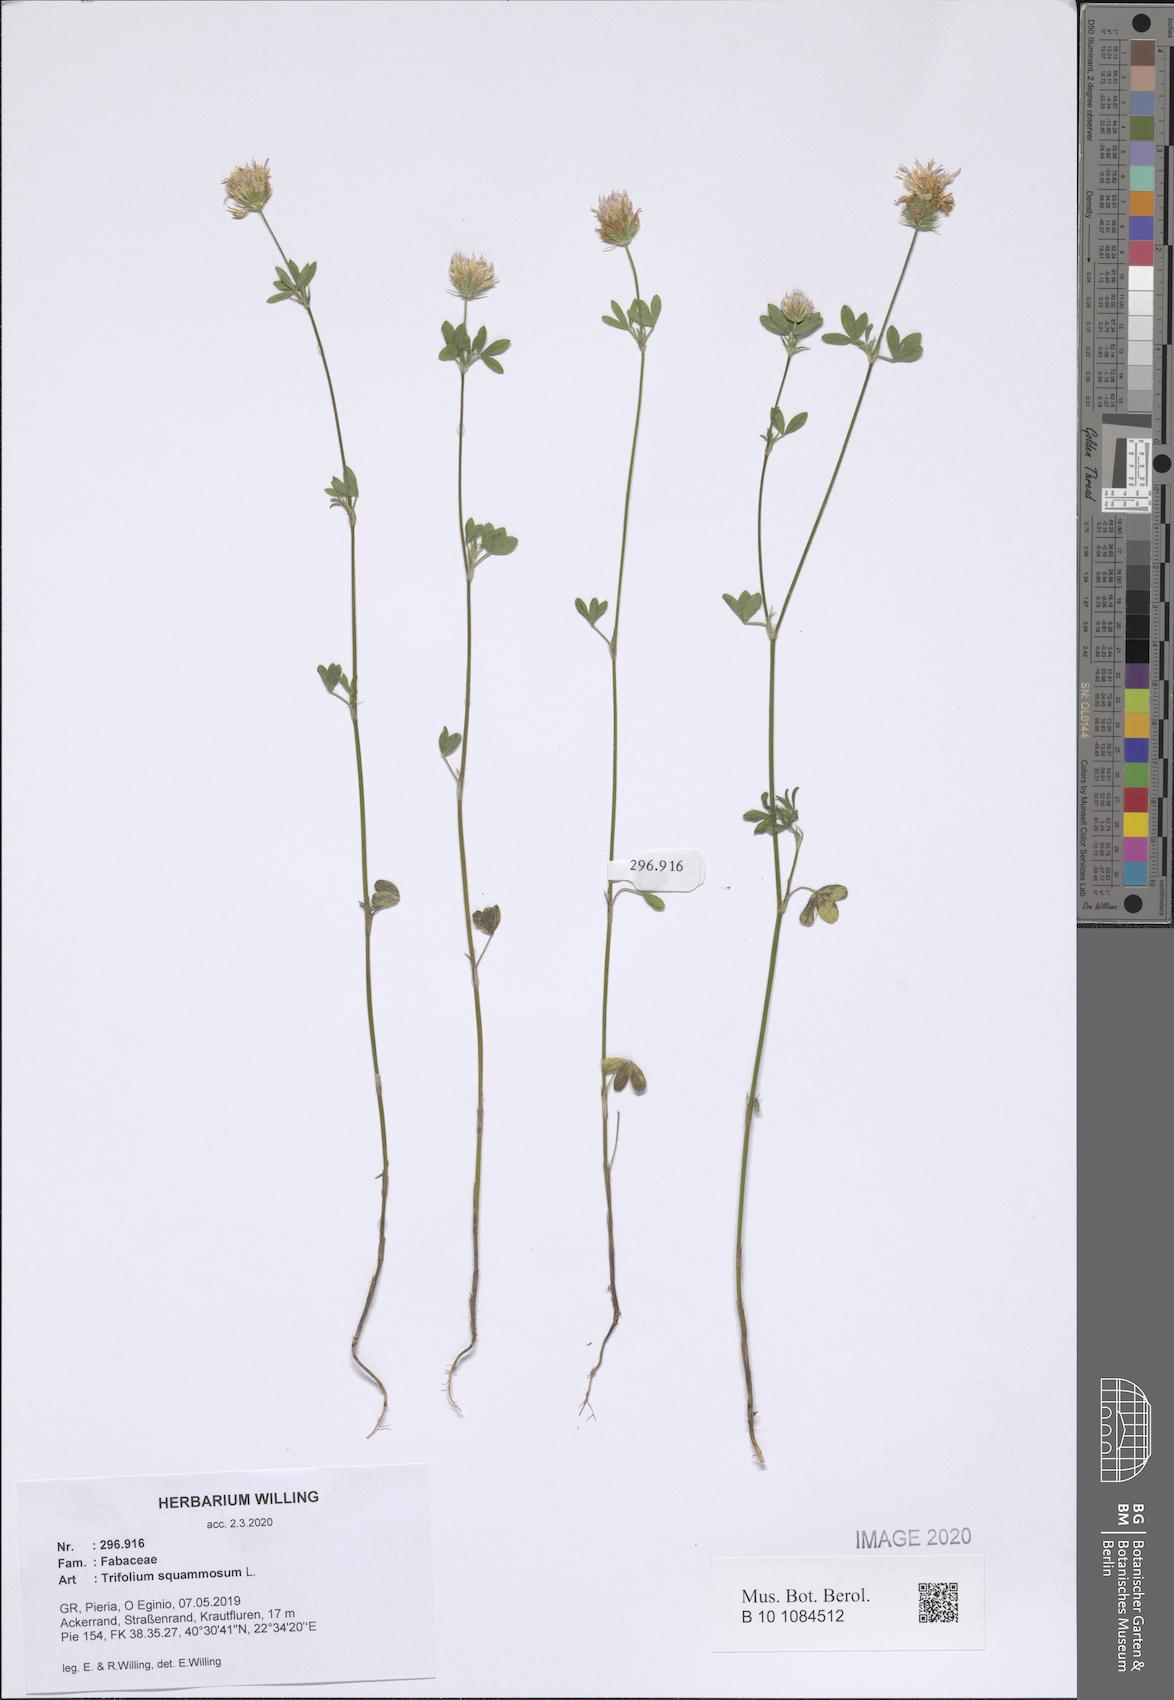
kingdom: Plantae
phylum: Tracheophyta
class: Magnoliopsida
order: Fabales
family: Fabaceae
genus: Trifolium
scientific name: Trifolium squamosum
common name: Sea clover
